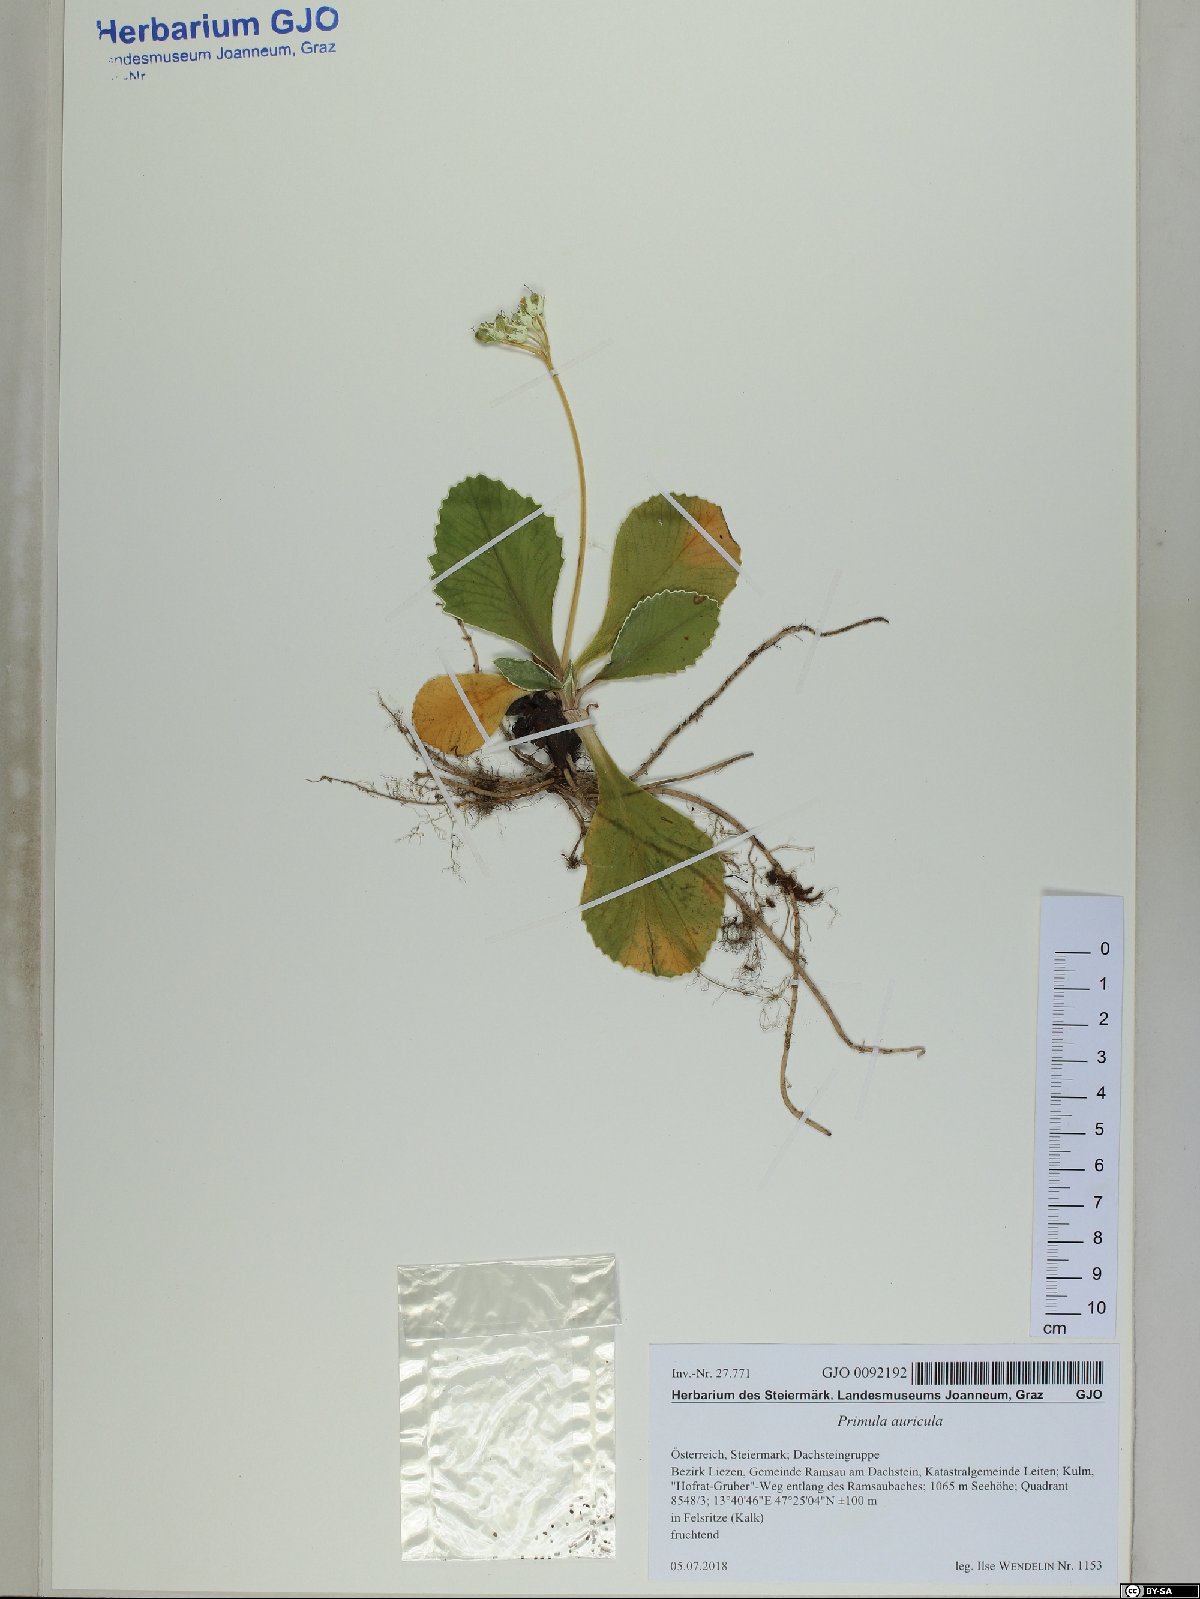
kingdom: Plantae
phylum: Tracheophyta
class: Magnoliopsida
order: Ericales
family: Primulaceae
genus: Primula
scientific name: Primula auricula
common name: Auricula
